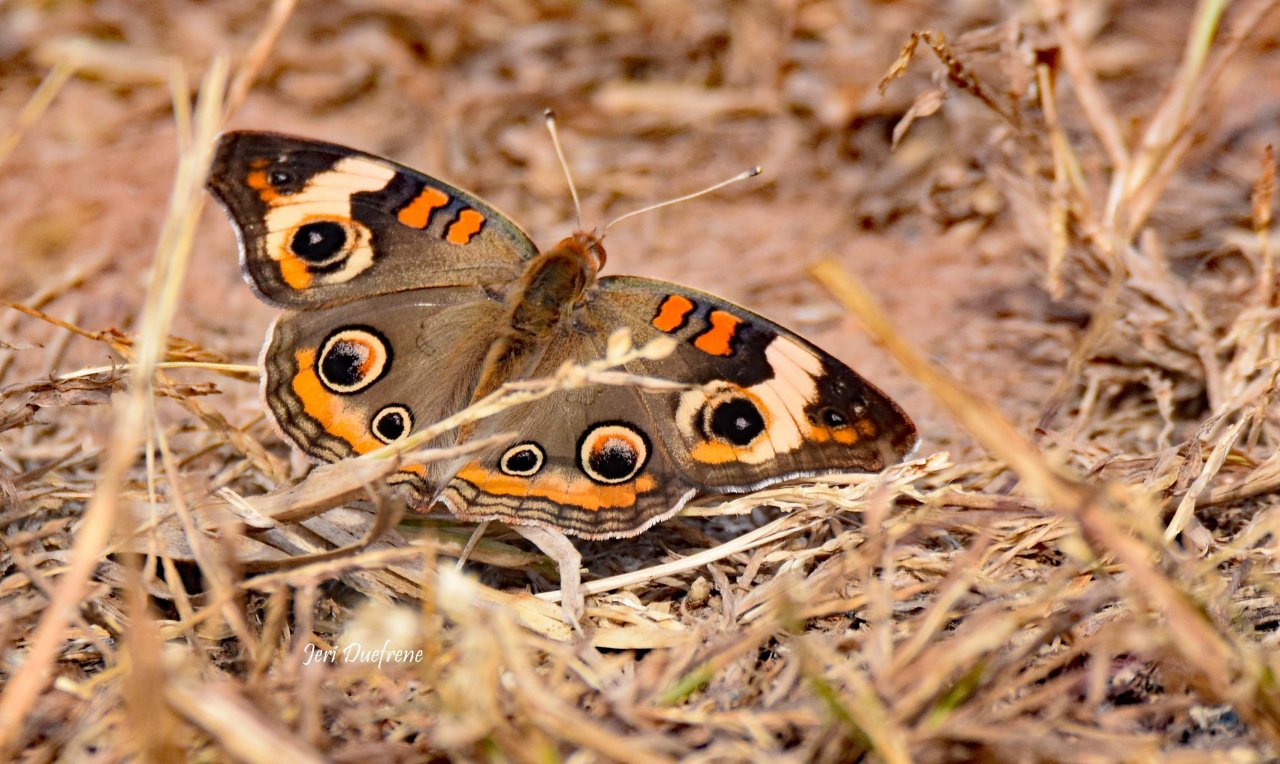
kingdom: Animalia
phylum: Arthropoda
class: Insecta
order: Lepidoptera
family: Nymphalidae
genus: Junonia
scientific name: Junonia coenia
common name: Common Buckeye
